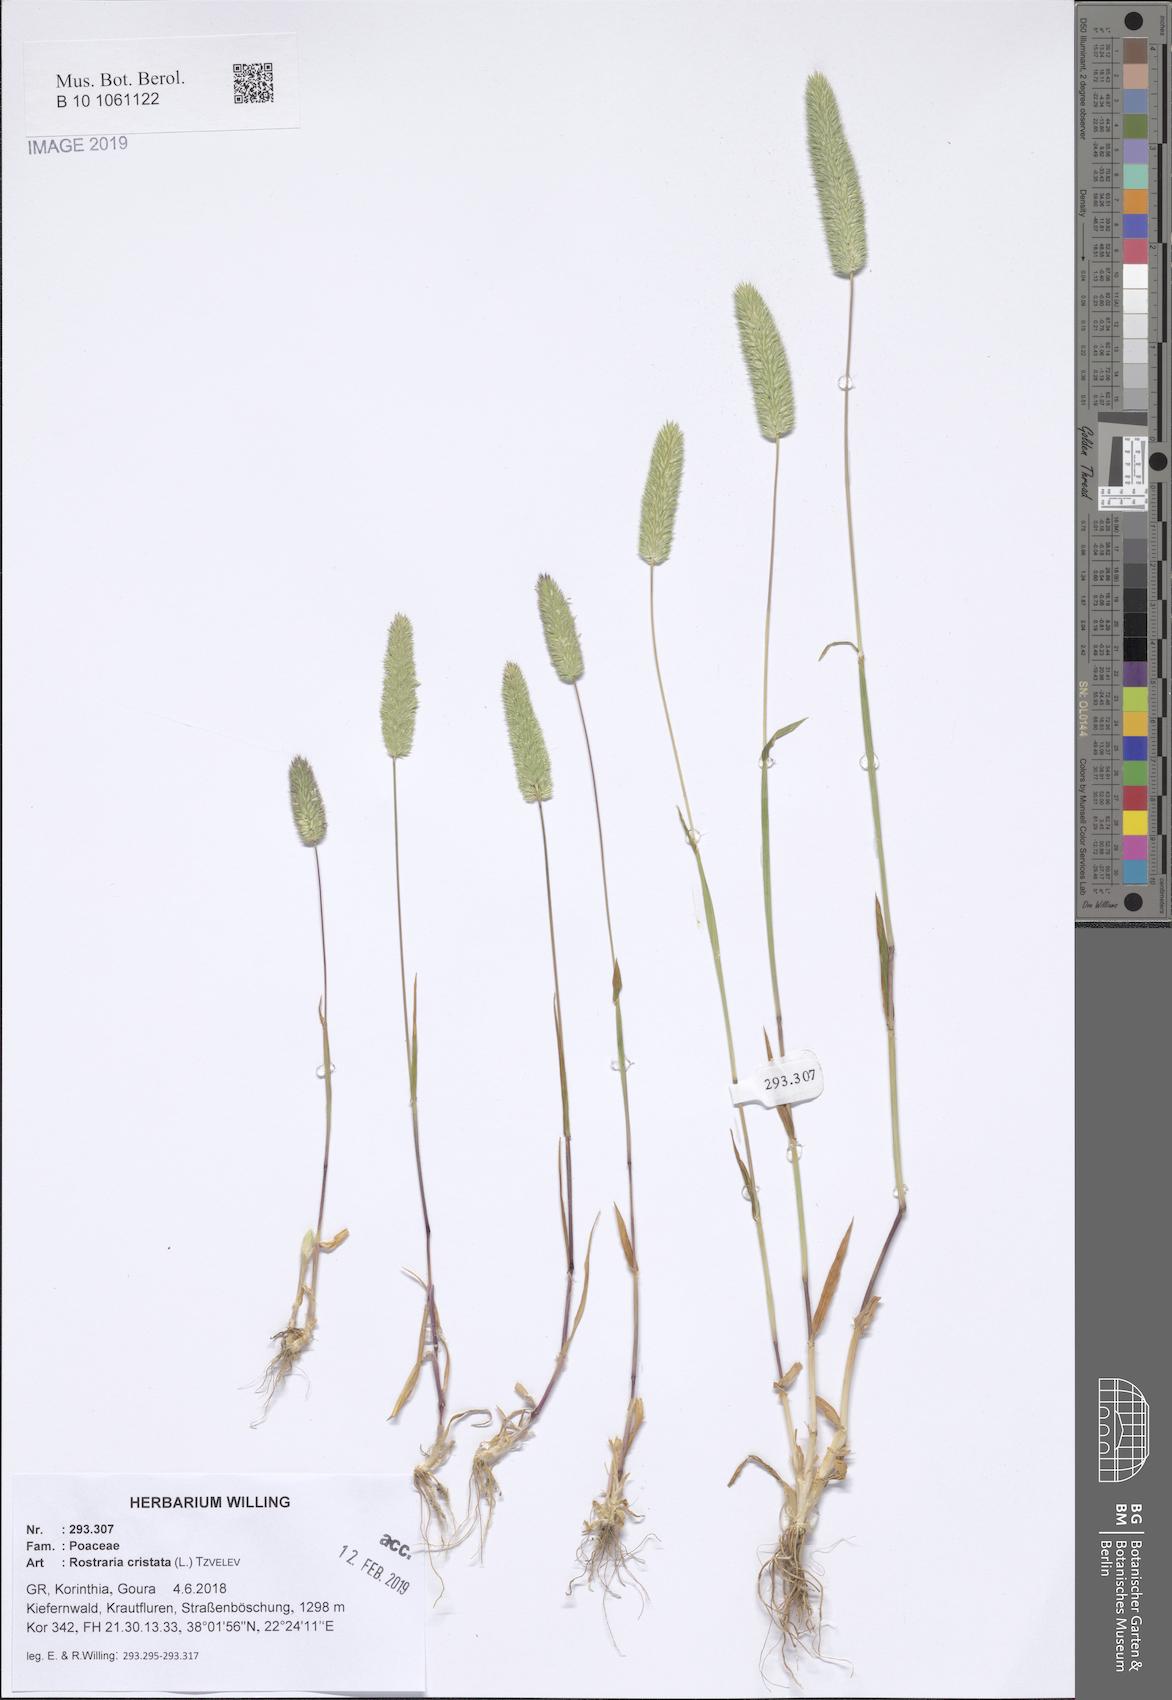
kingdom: Plantae
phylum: Tracheophyta
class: Liliopsida
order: Poales
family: Poaceae
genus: Rostraria
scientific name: Rostraria cristata
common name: Mediterranean hair-grass
